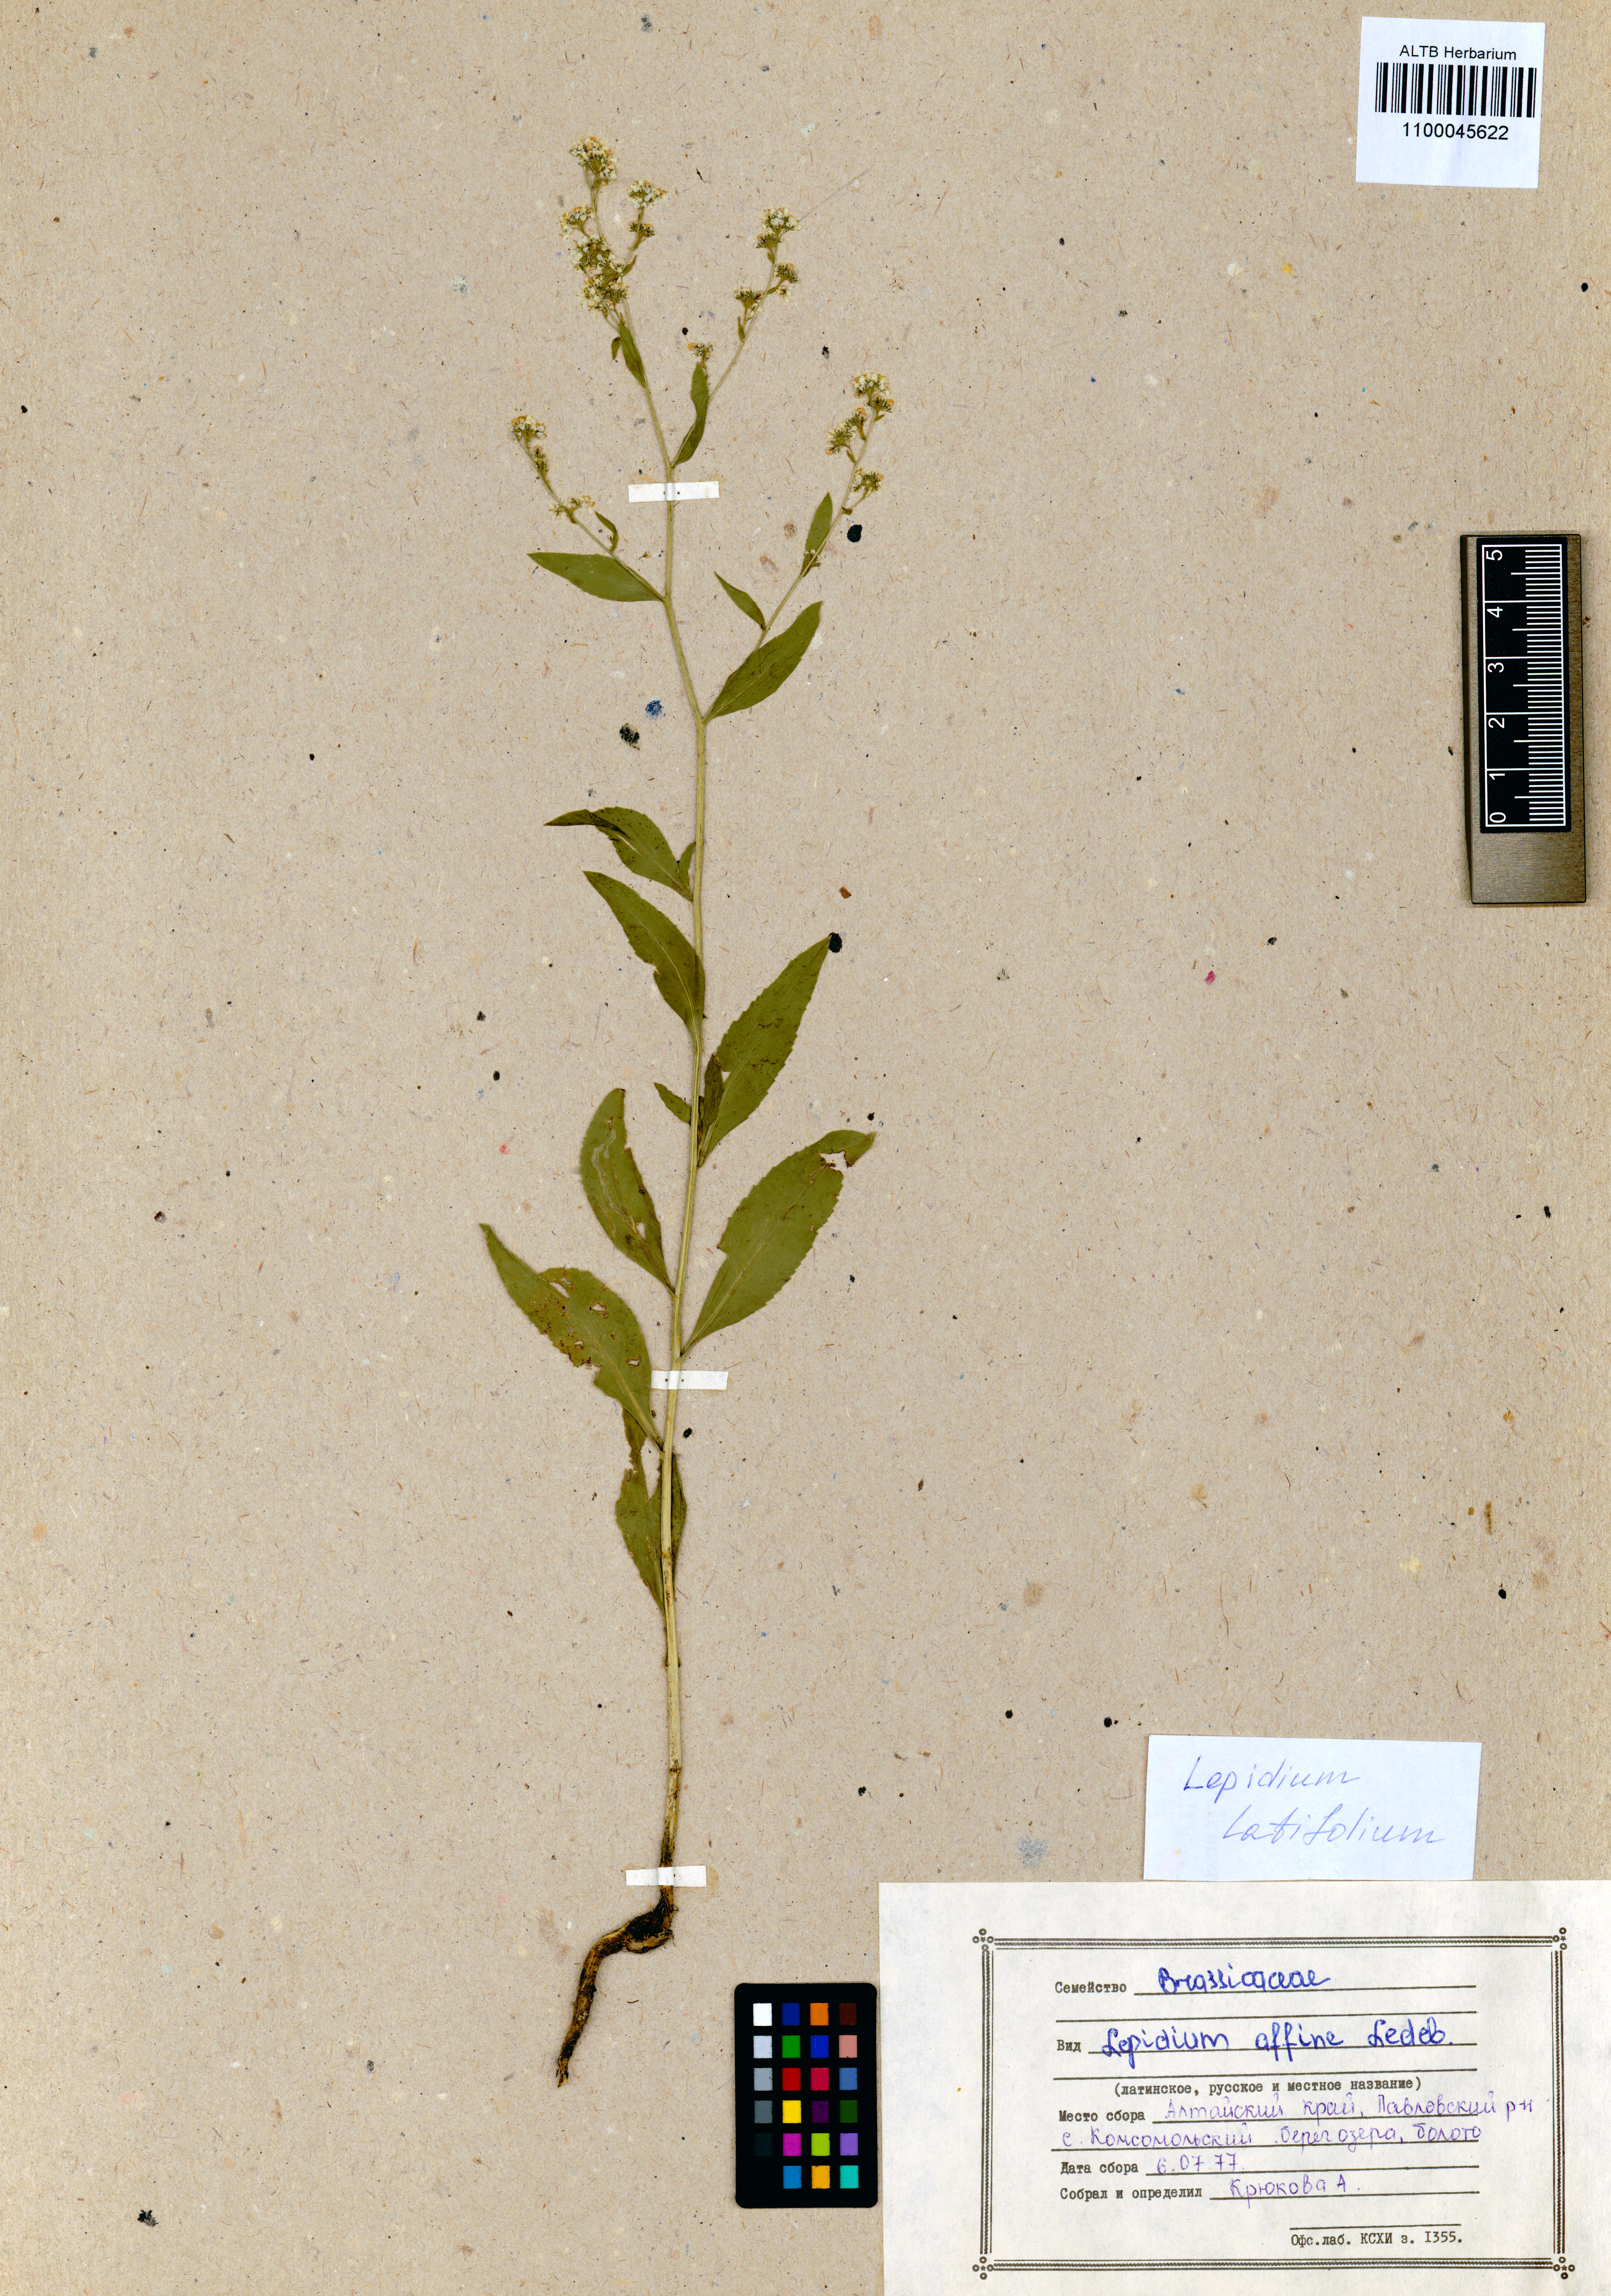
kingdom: Plantae
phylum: Tracheophyta
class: Magnoliopsida
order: Brassicales
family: Brassicaceae
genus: Lepidium
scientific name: Lepidium latifolium
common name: Dittander
